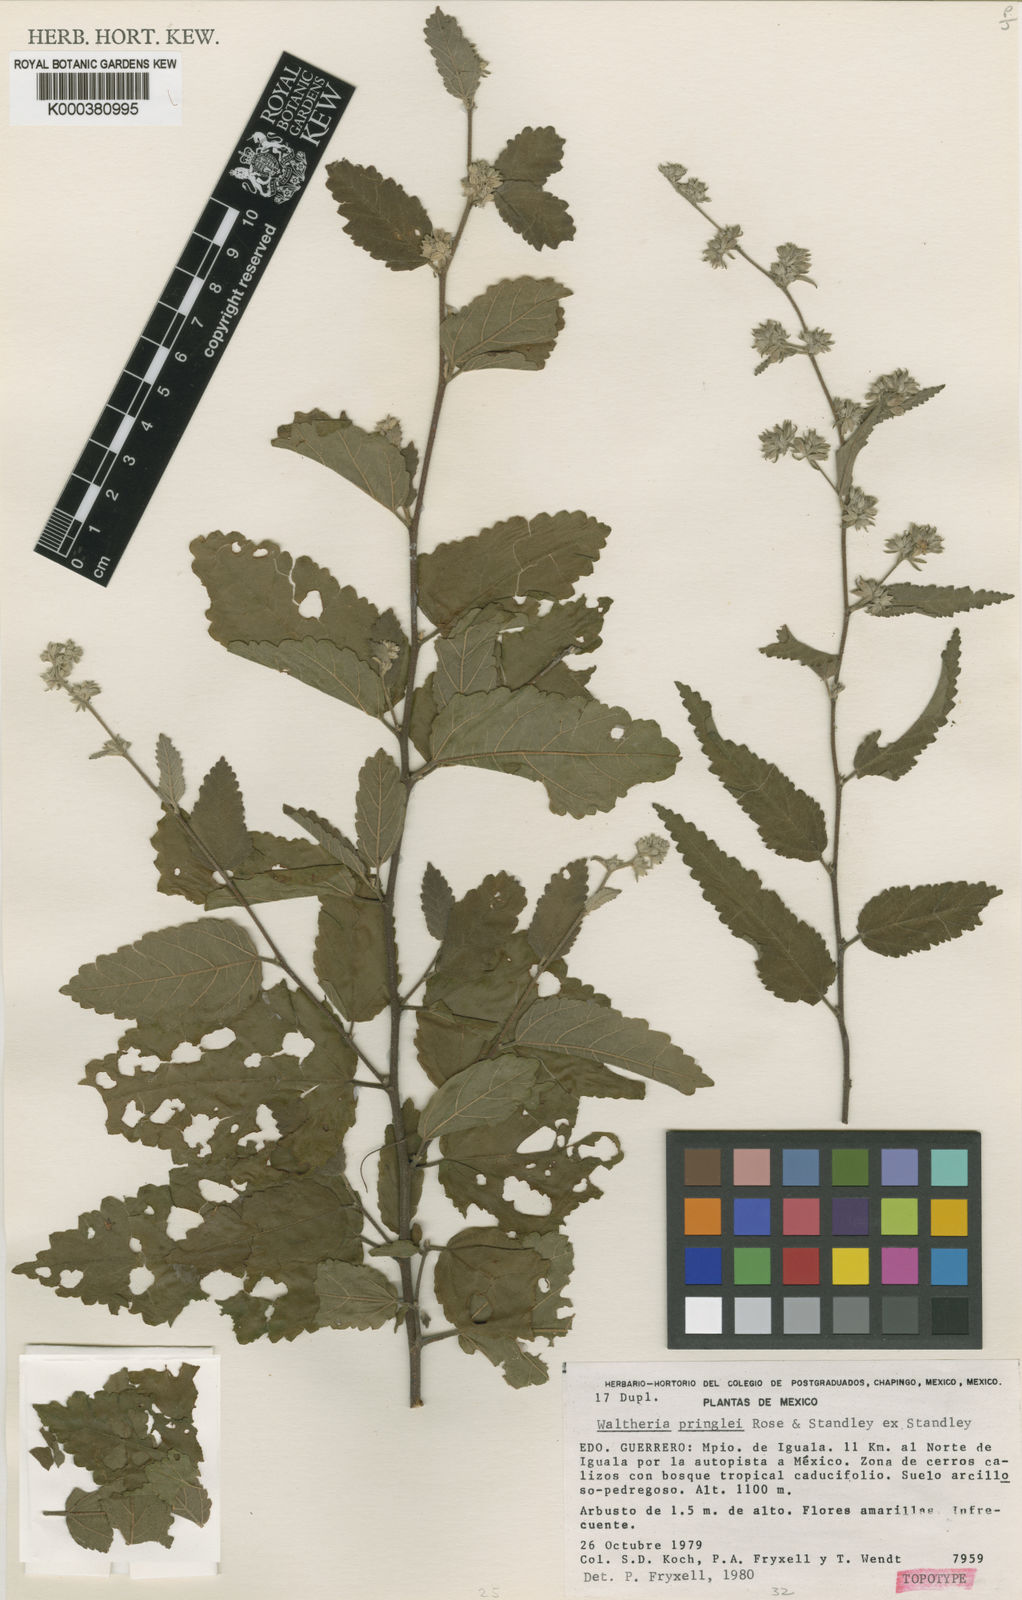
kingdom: Plantae
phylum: Tracheophyta
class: Magnoliopsida
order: Malvales
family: Malvaceae
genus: Waltheria
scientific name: Waltheria pringlei
